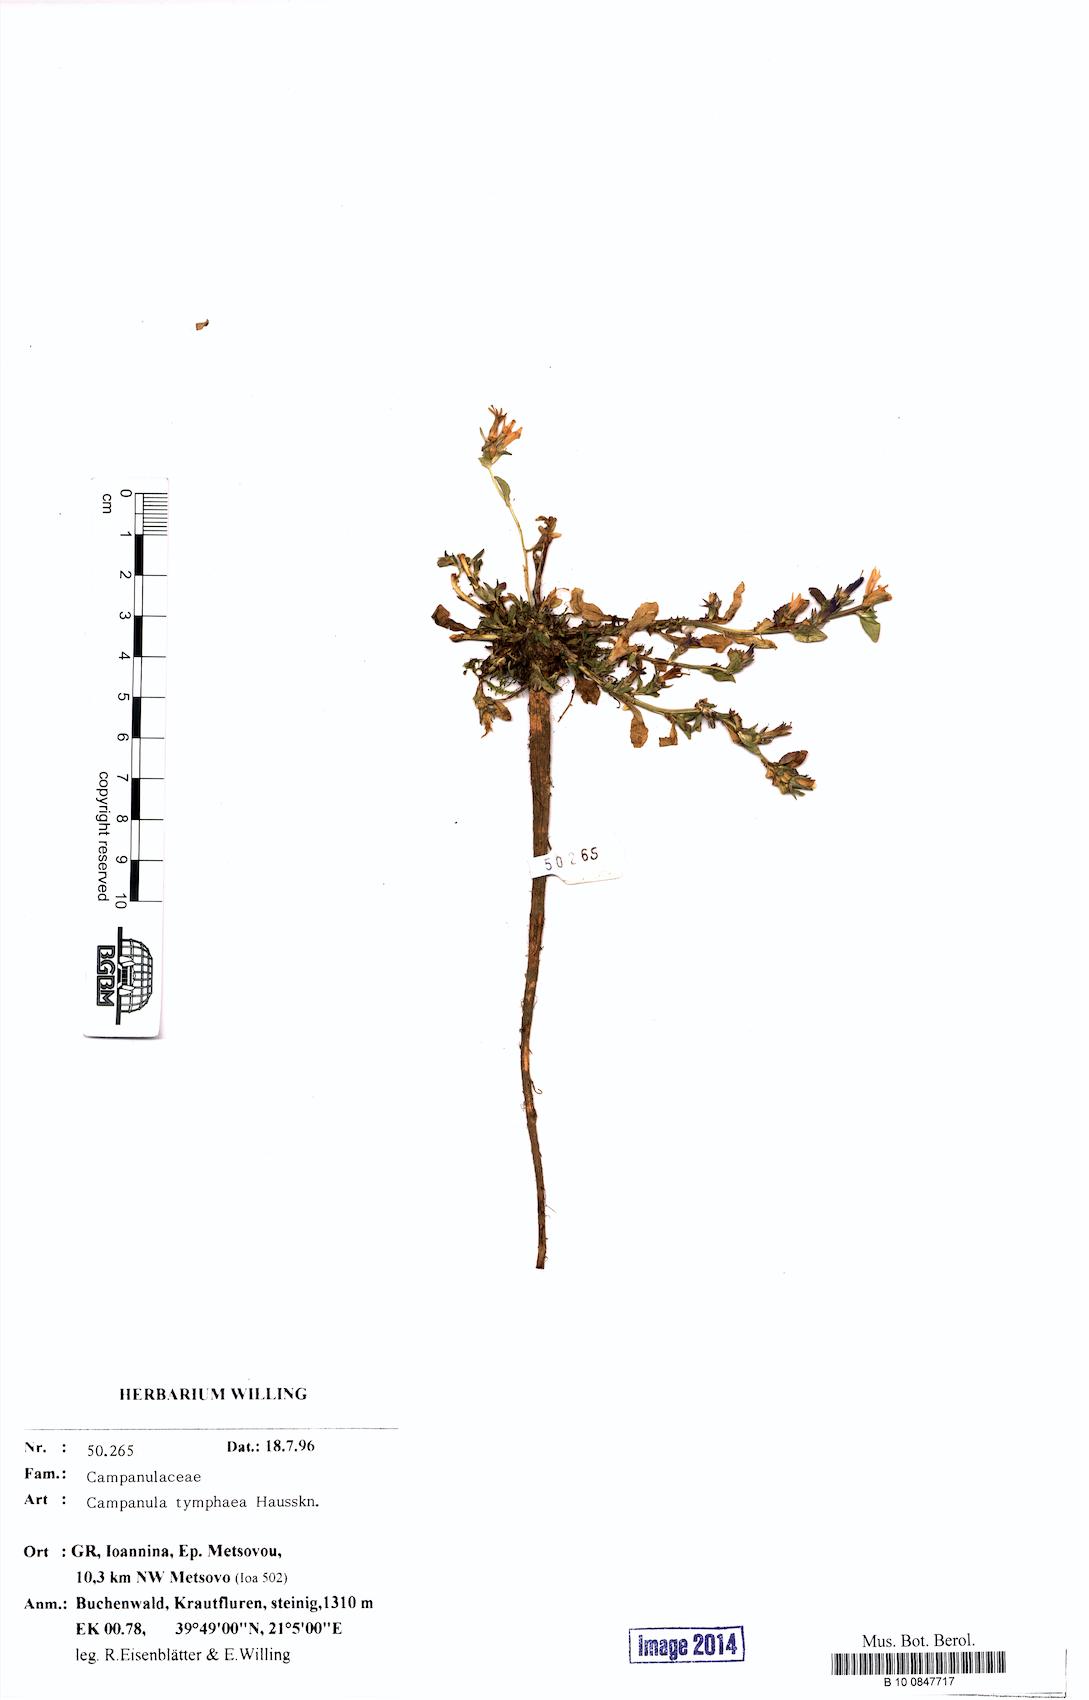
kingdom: Plantae
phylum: Tracheophyta
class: Magnoliopsida
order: Asterales
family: Campanulaceae
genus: Campanula
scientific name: Campanula tymphaea
